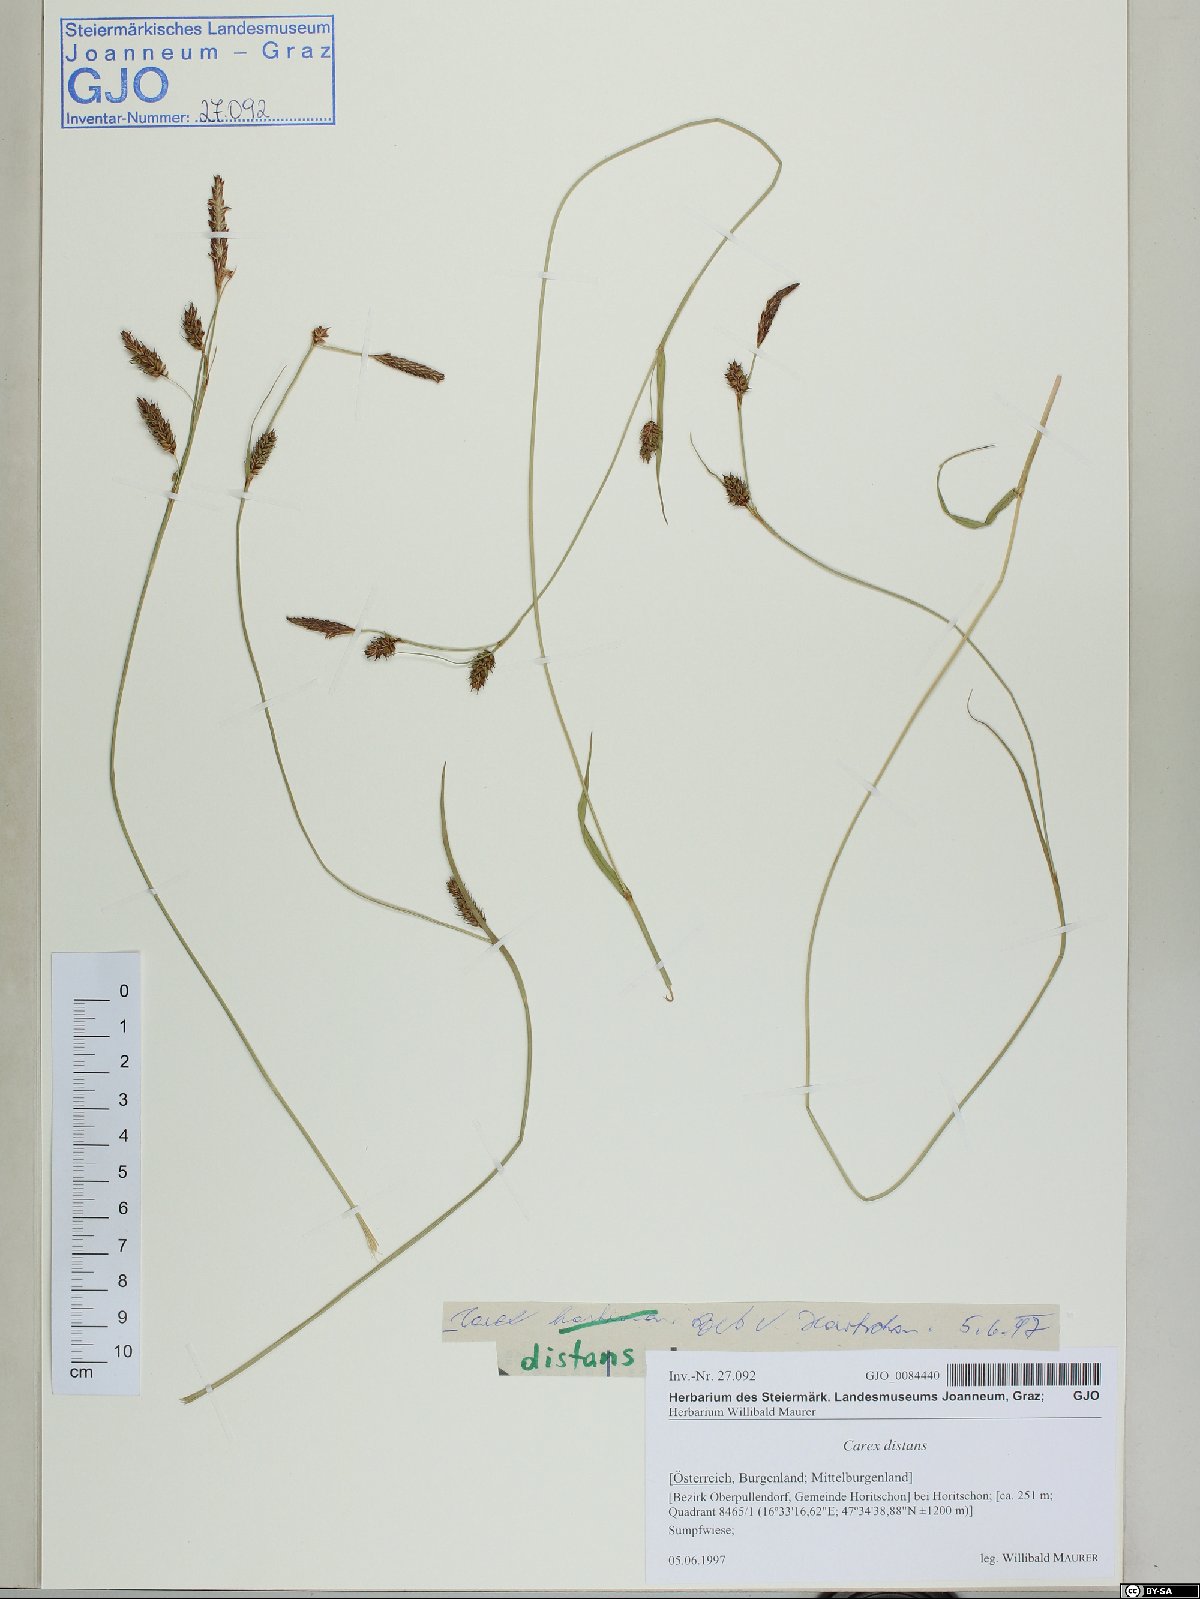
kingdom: Plantae
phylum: Tracheophyta
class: Liliopsida
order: Poales
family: Cyperaceae
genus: Carex
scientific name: Carex distans
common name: Distant sedge
